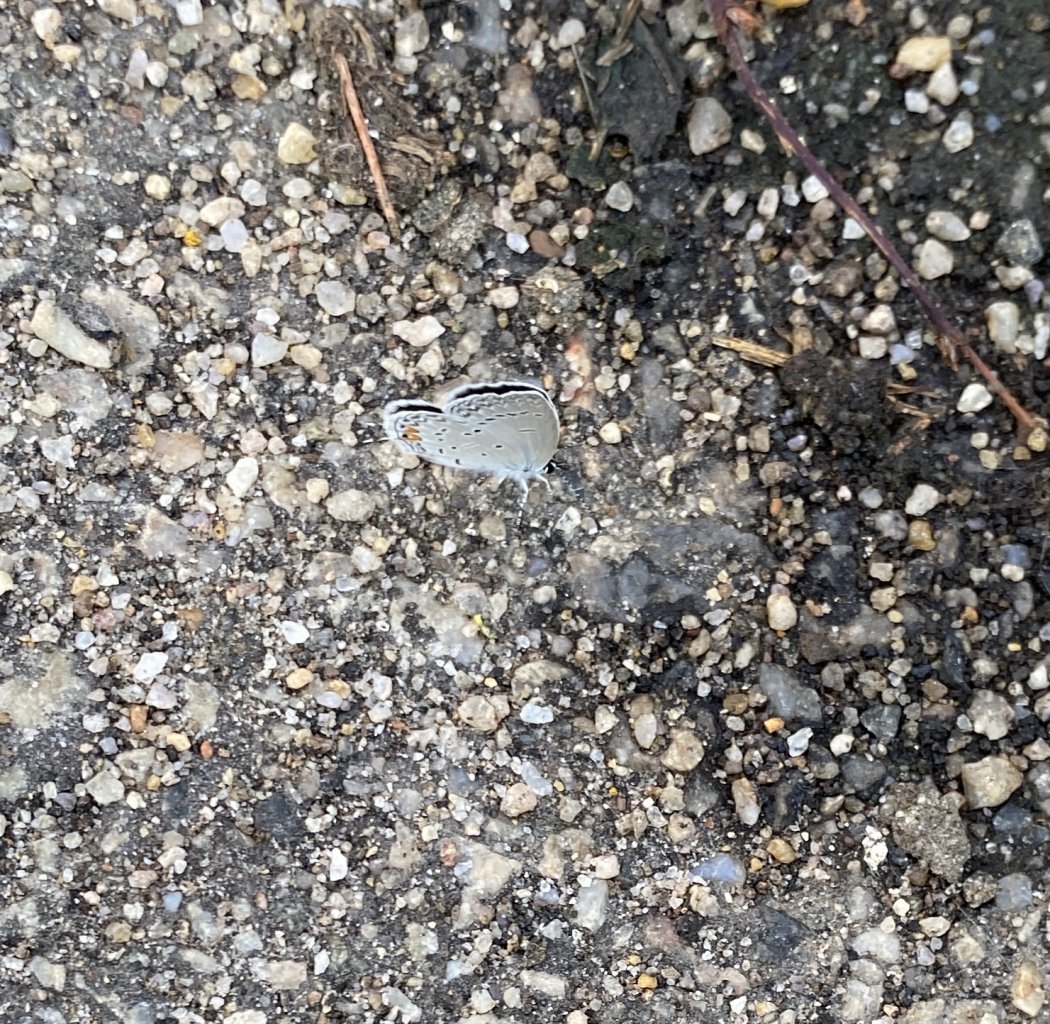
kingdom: Animalia
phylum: Arthropoda
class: Insecta
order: Lepidoptera
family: Lycaenidae
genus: Elkalyce
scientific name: Elkalyce comyntas
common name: Eastern Tailed-Blue
